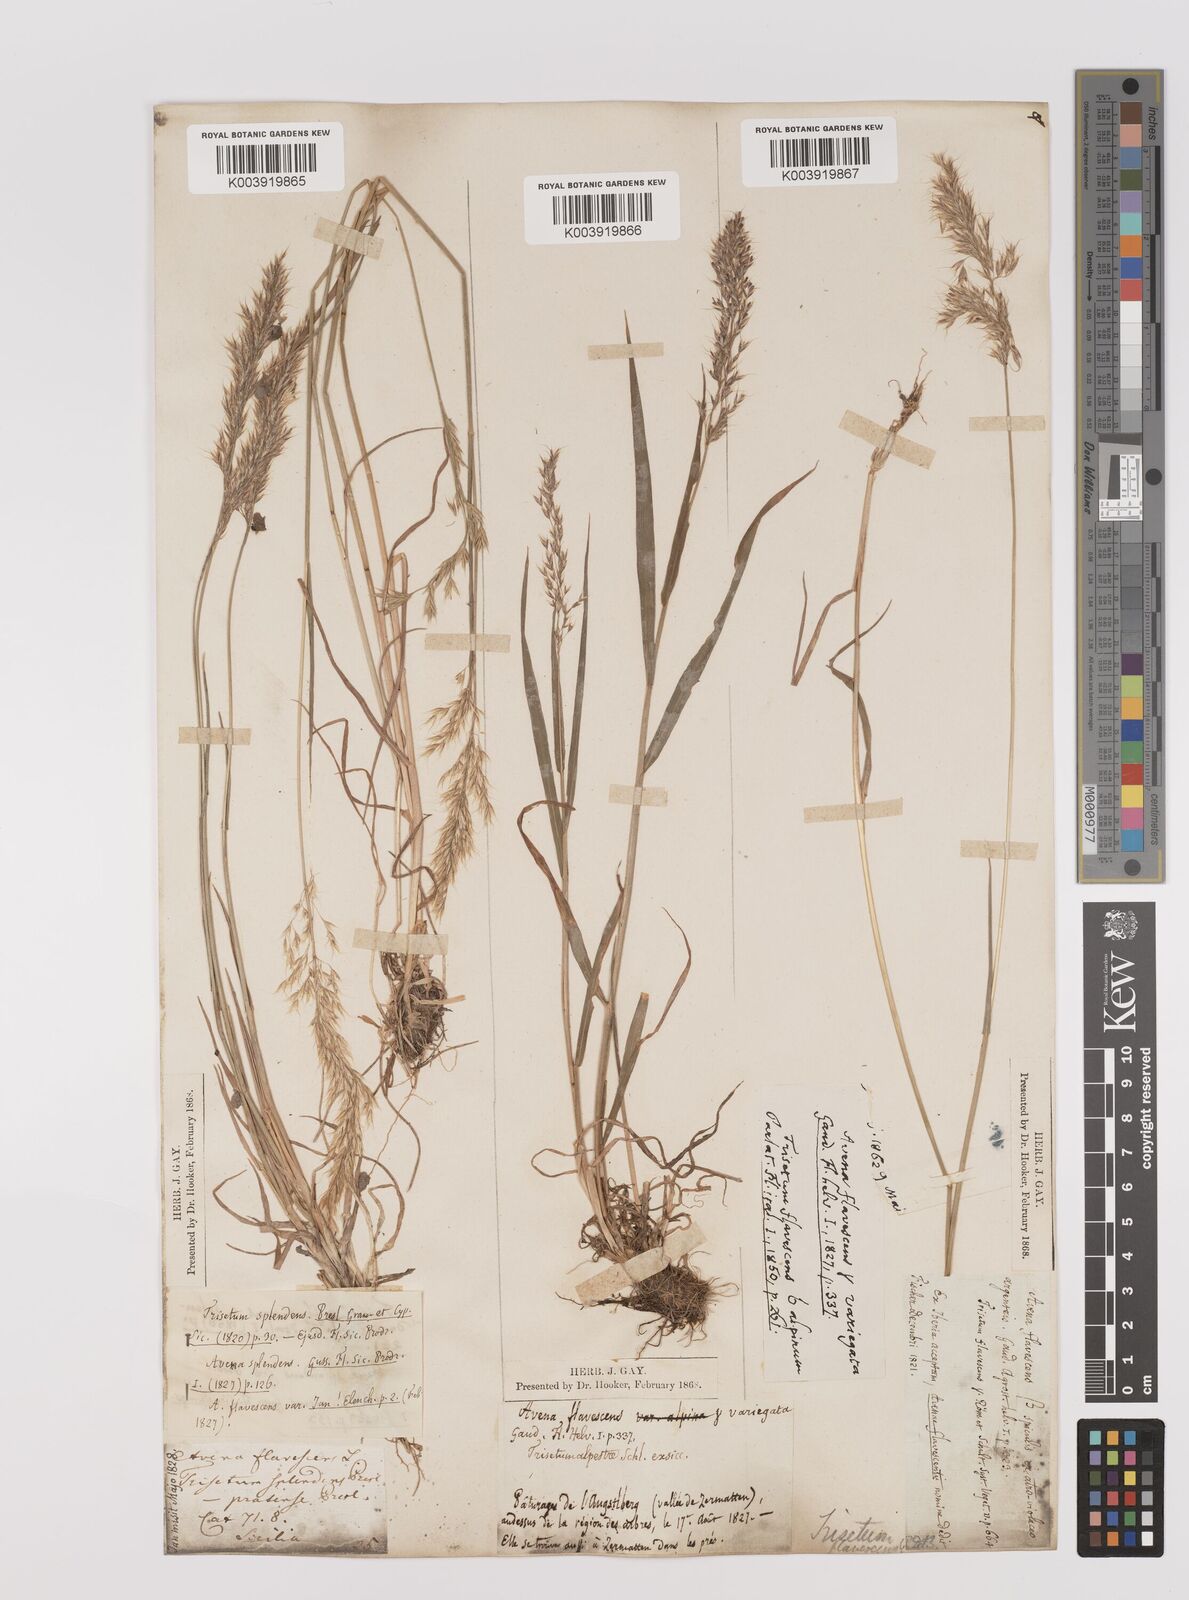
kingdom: Plantae
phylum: Tracheophyta
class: Liliopsida
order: Poales
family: Poaceae
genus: Trisetum
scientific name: Trisetum flavescens
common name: Yellow oat-grass
